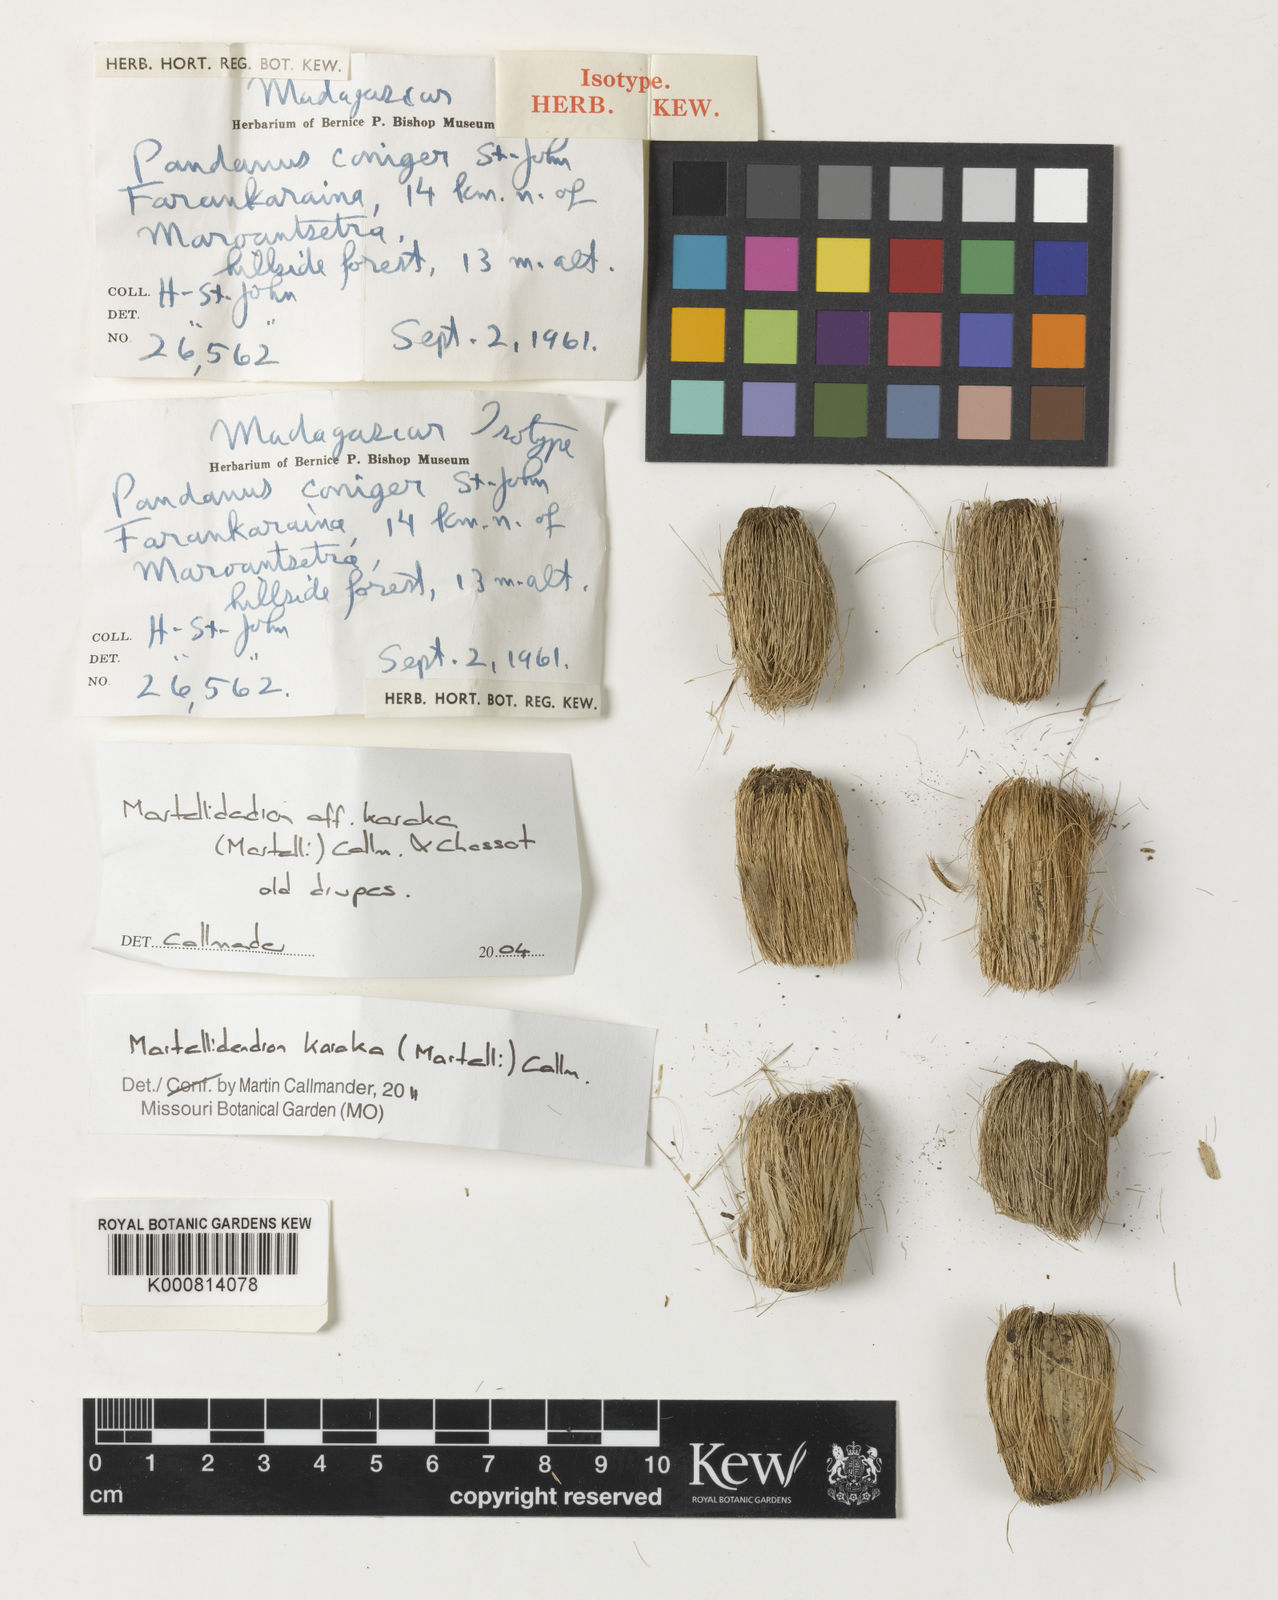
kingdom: Plantae
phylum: Tracheophyta
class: Liliopsida
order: Pandanales
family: Pandanaceae
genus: Martellidendron
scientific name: Martellidendron karaka
